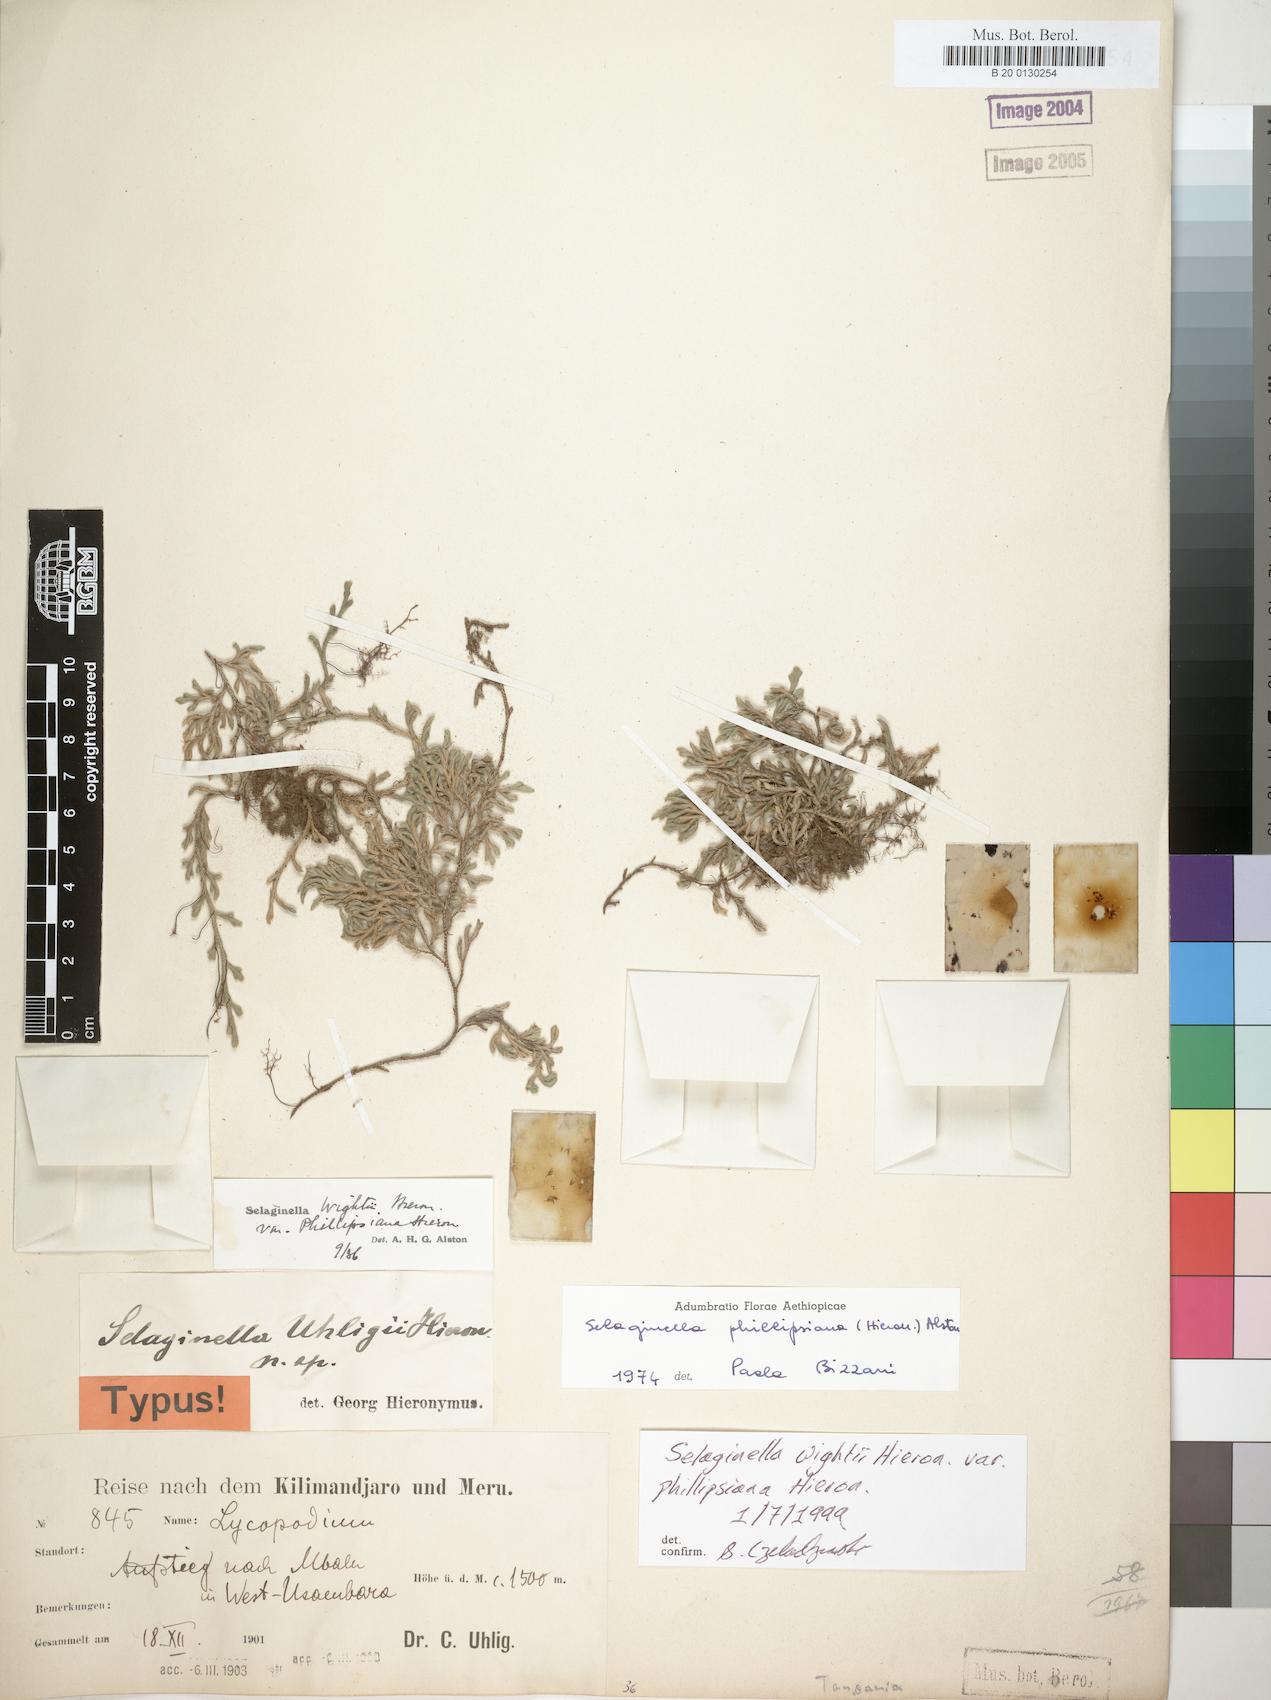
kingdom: Plantae
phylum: Tracheophyta
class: Lycopodiopsida
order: Selaginellales
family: Selaginellaceae
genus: Selaginella
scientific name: Selaginella phillipsina
